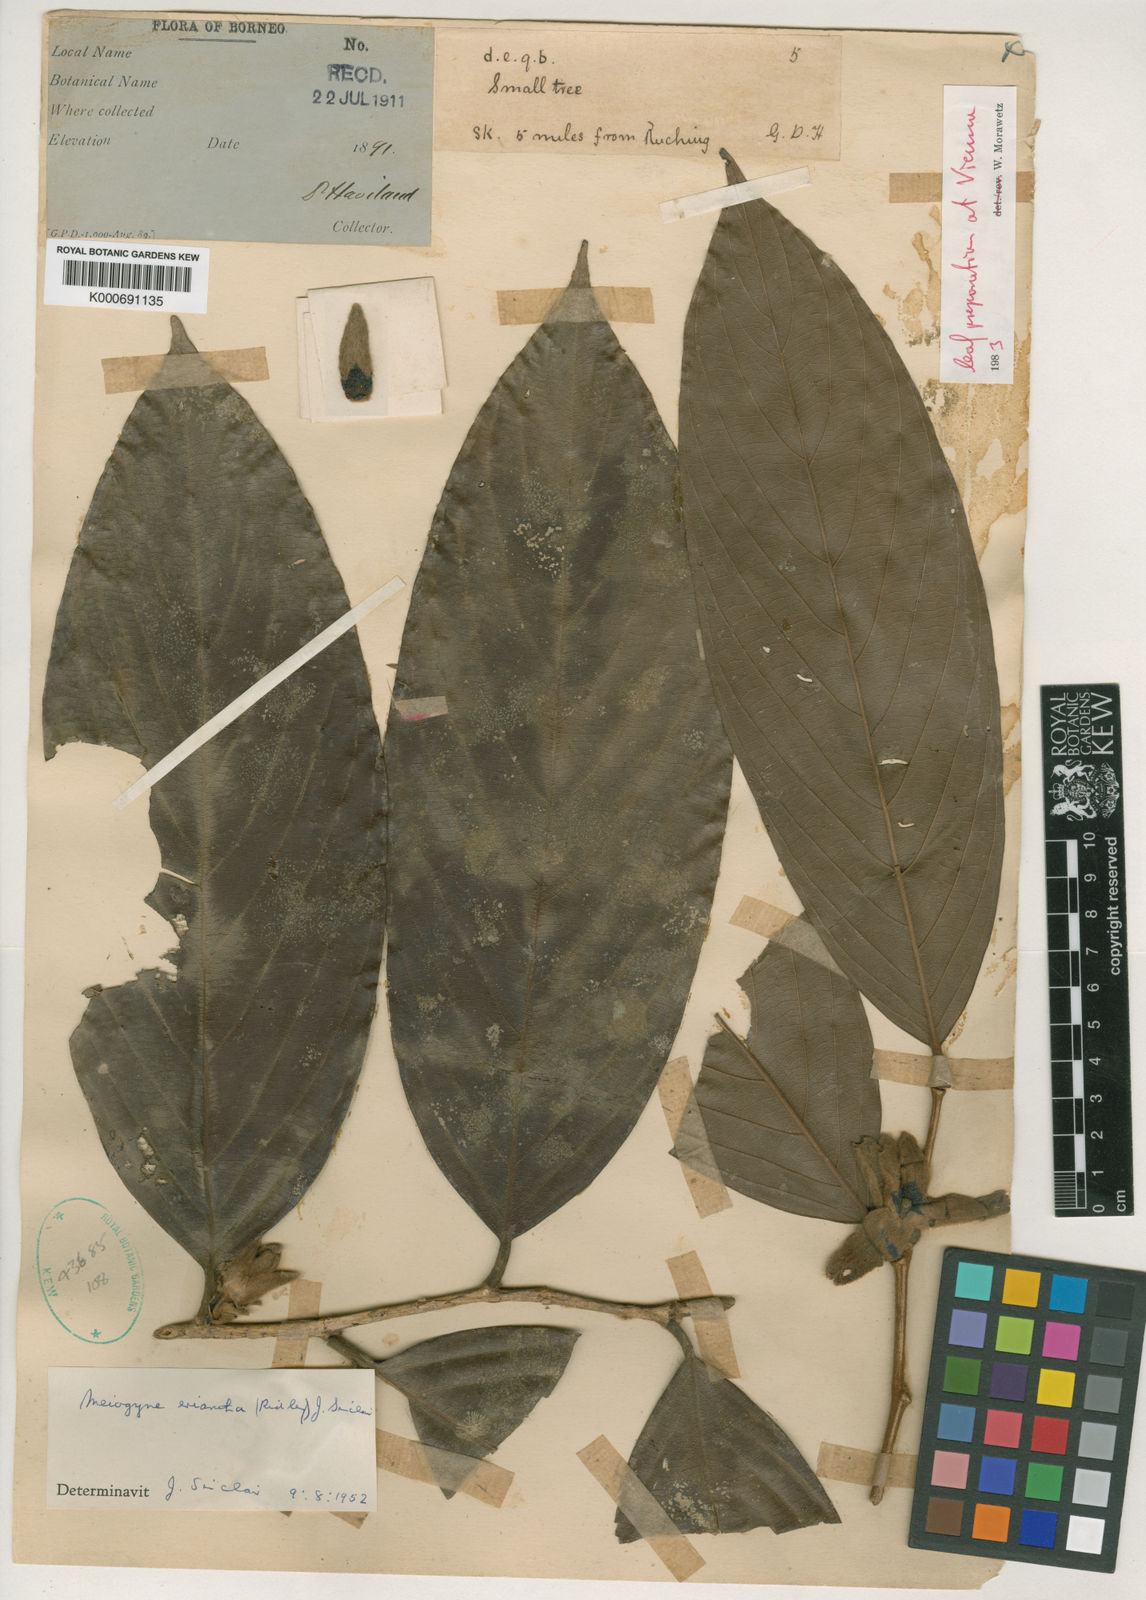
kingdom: Plantae
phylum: Tracheophyta
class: Magnoliopsida
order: Magnoliales
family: Annonaceae
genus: Meiogyne
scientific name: Meiogyne virgata
